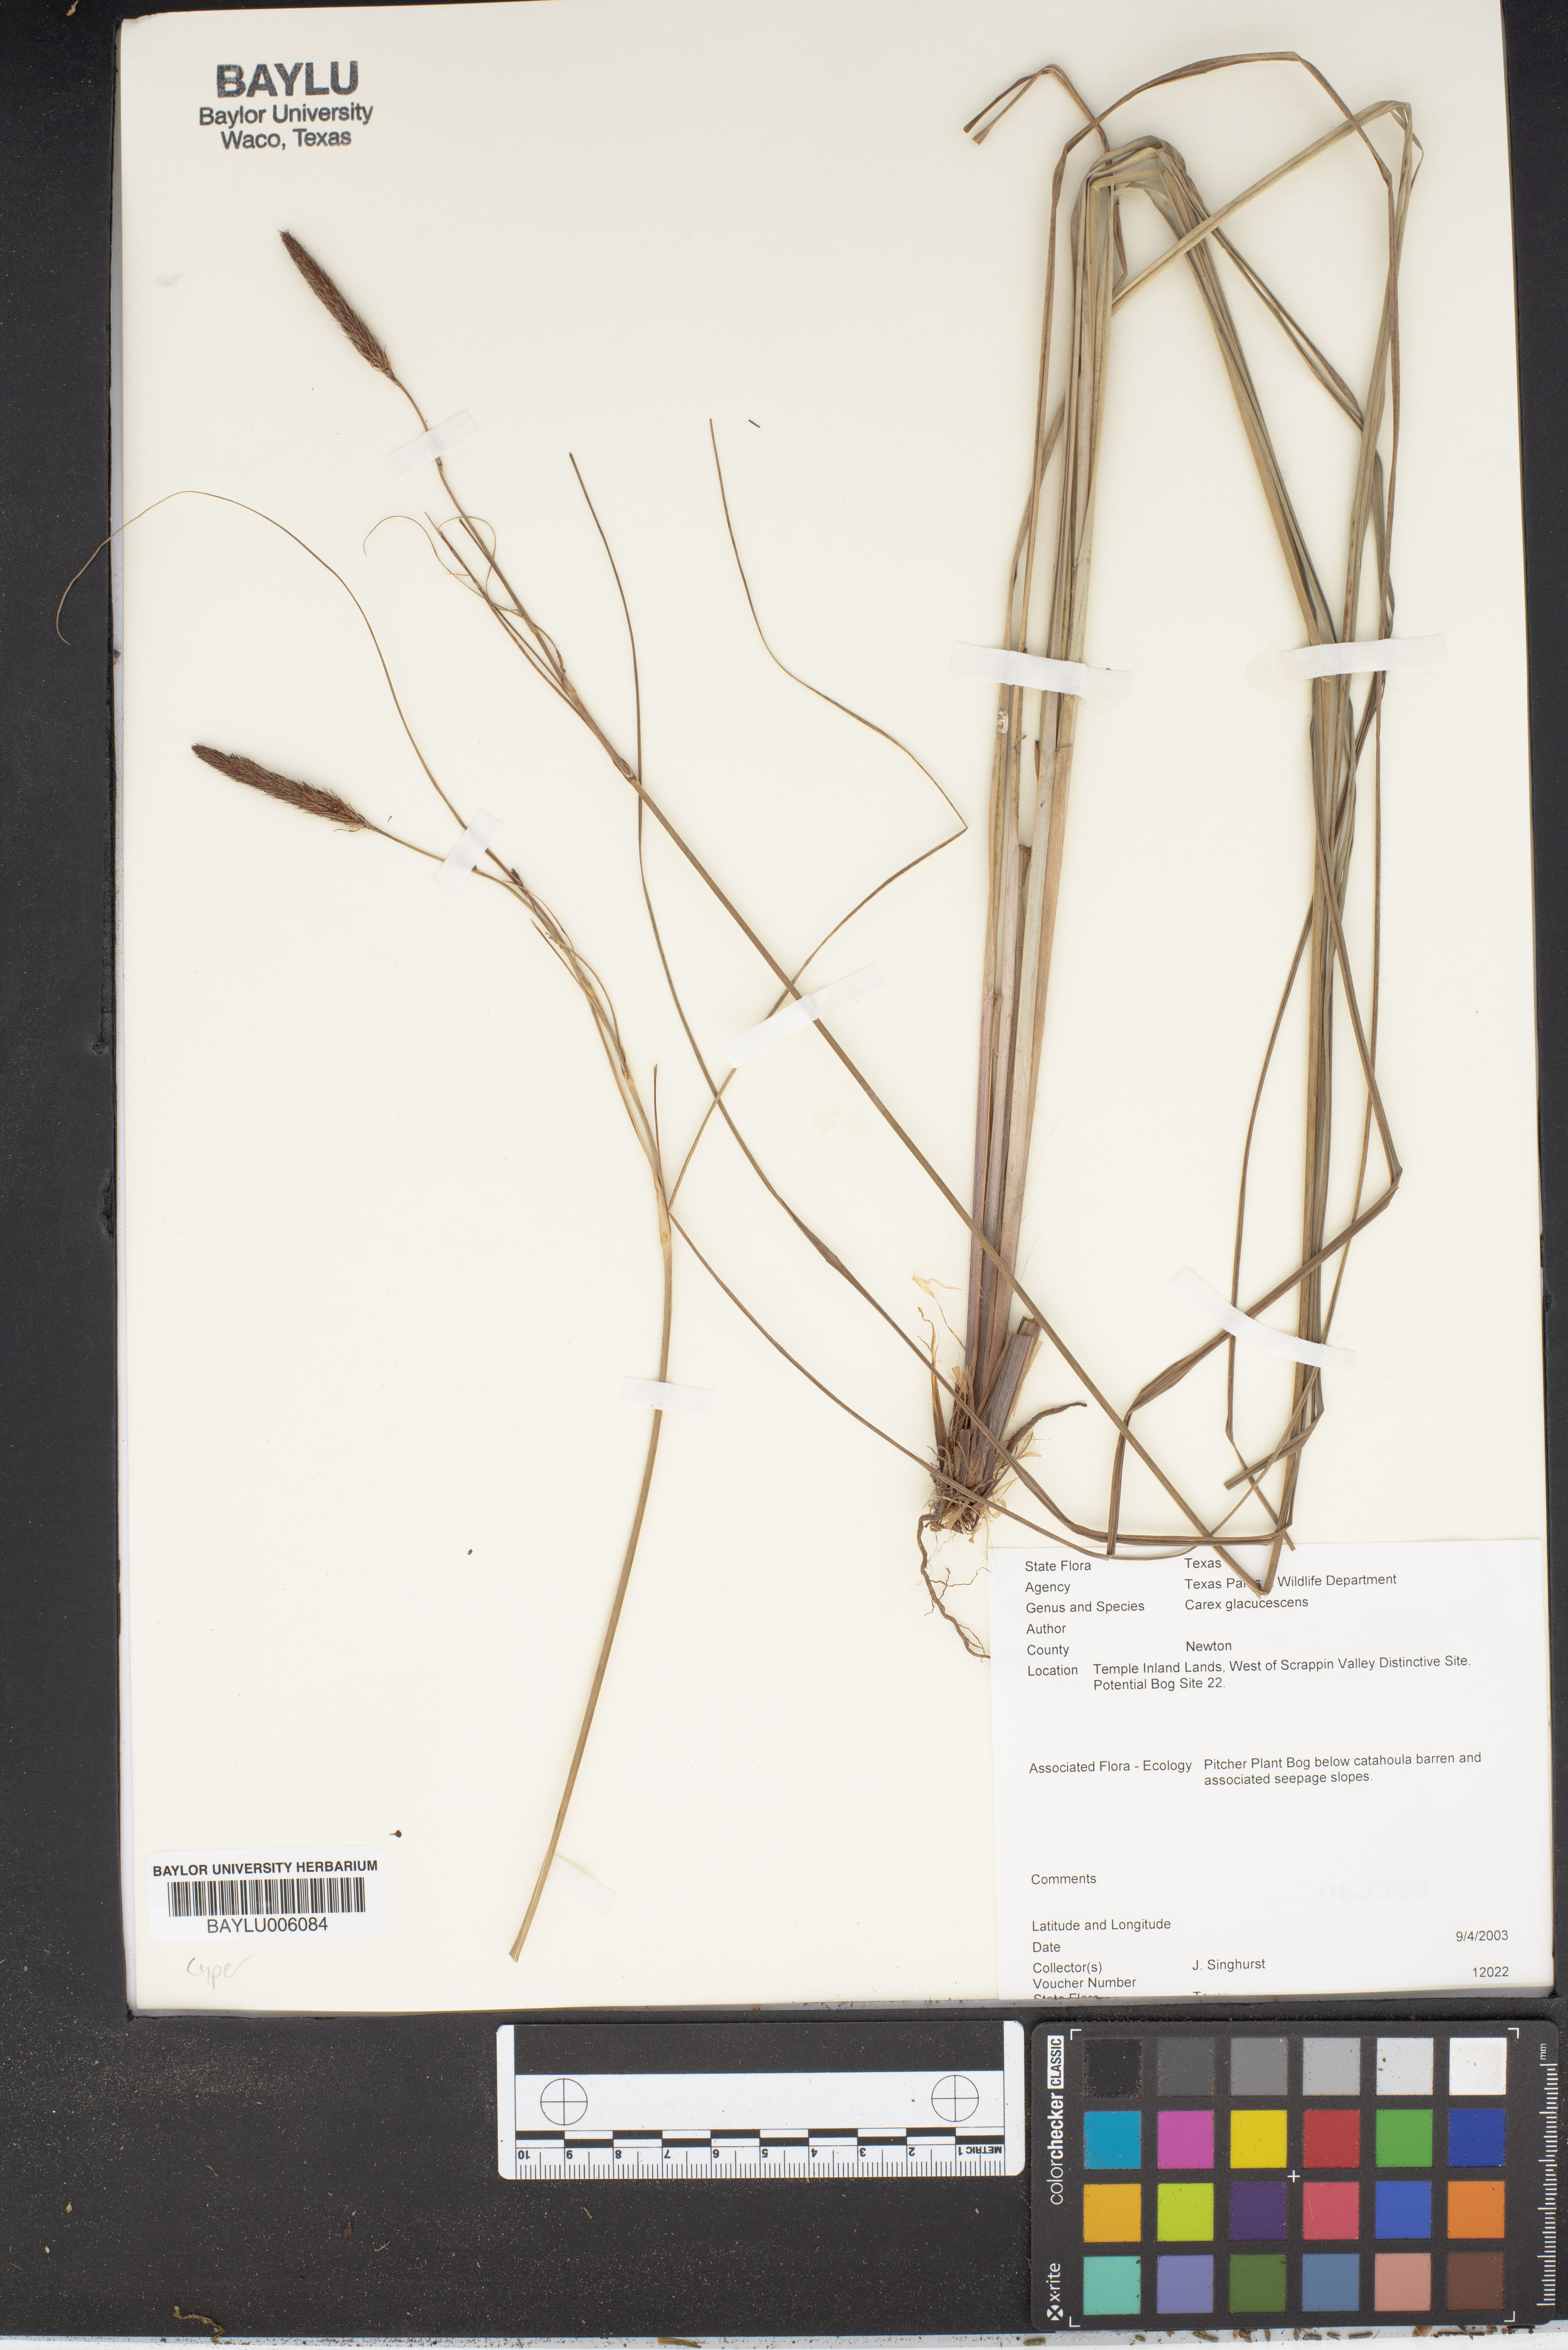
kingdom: Plantae
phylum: Tracheophyta
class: Liliopsida
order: Poales
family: Cyperaceae
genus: Carex
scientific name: Carex glaucescens
